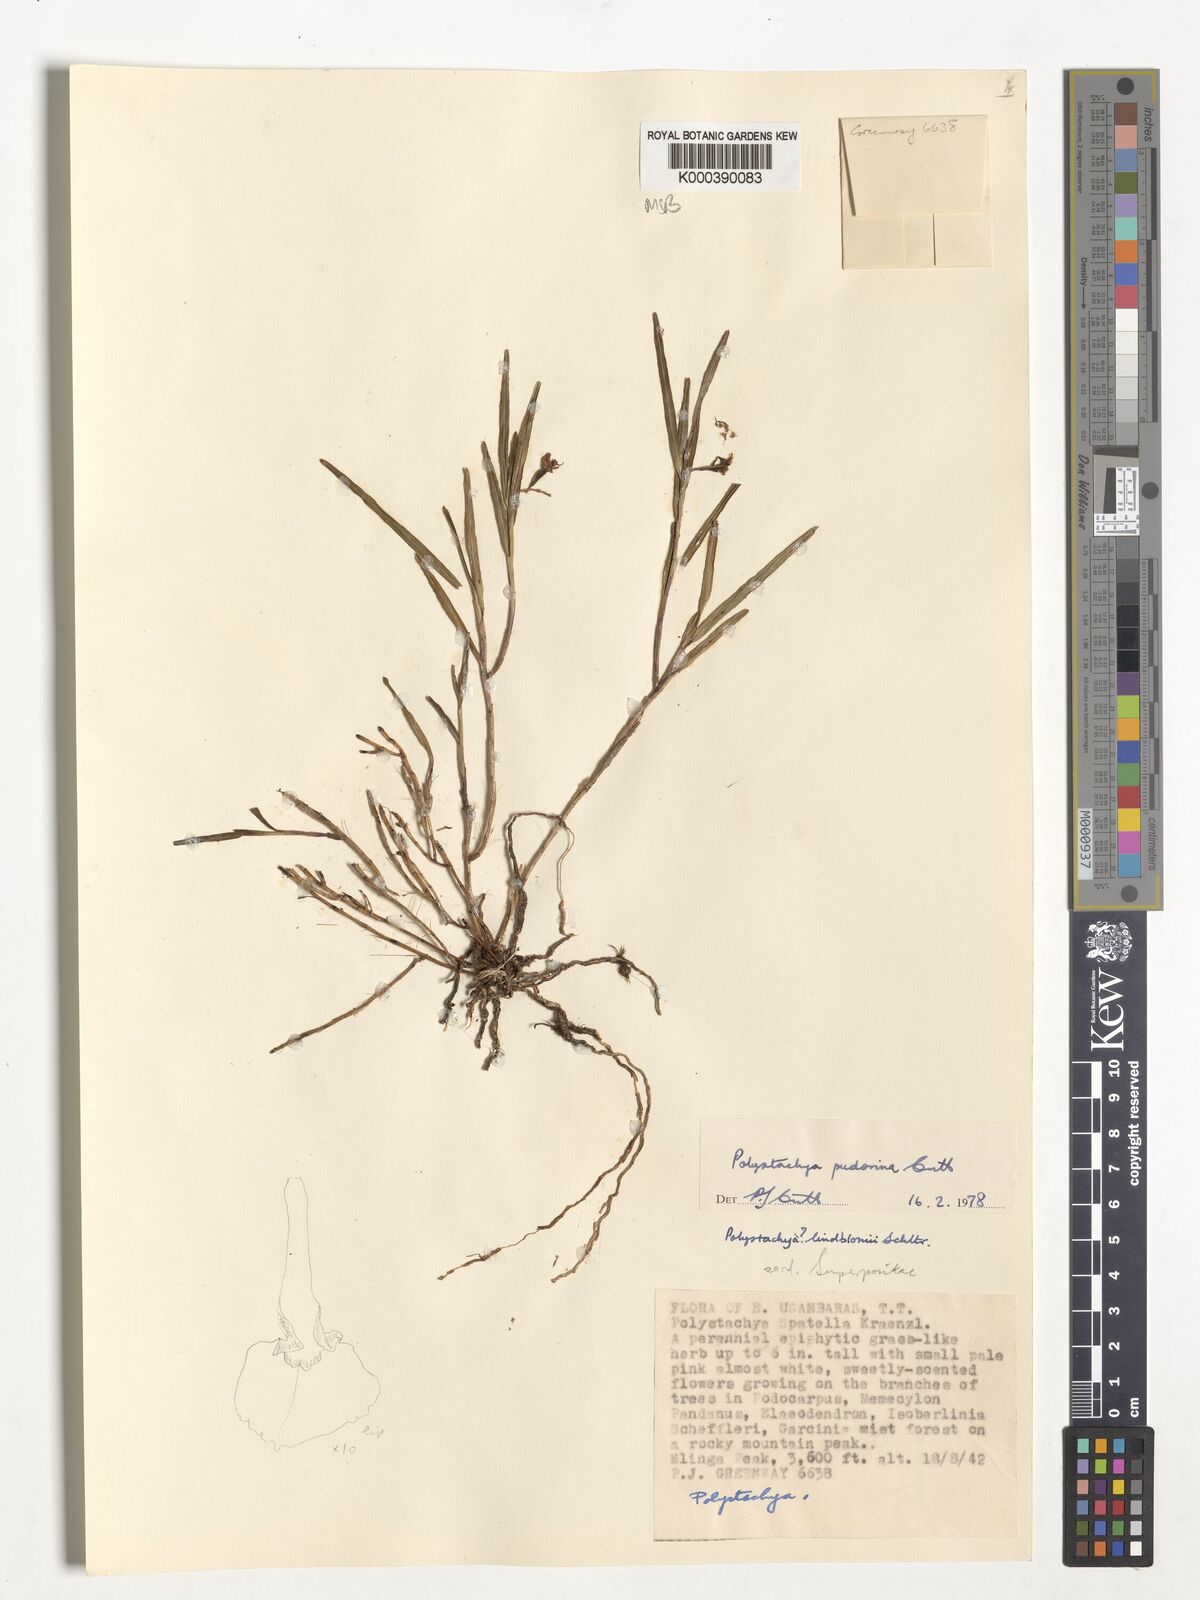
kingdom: Plantae
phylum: Tracheophyta
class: Liliopsida
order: Asparagales
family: Orchidaceae
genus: Polystachya
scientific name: Polystachya pudorina
